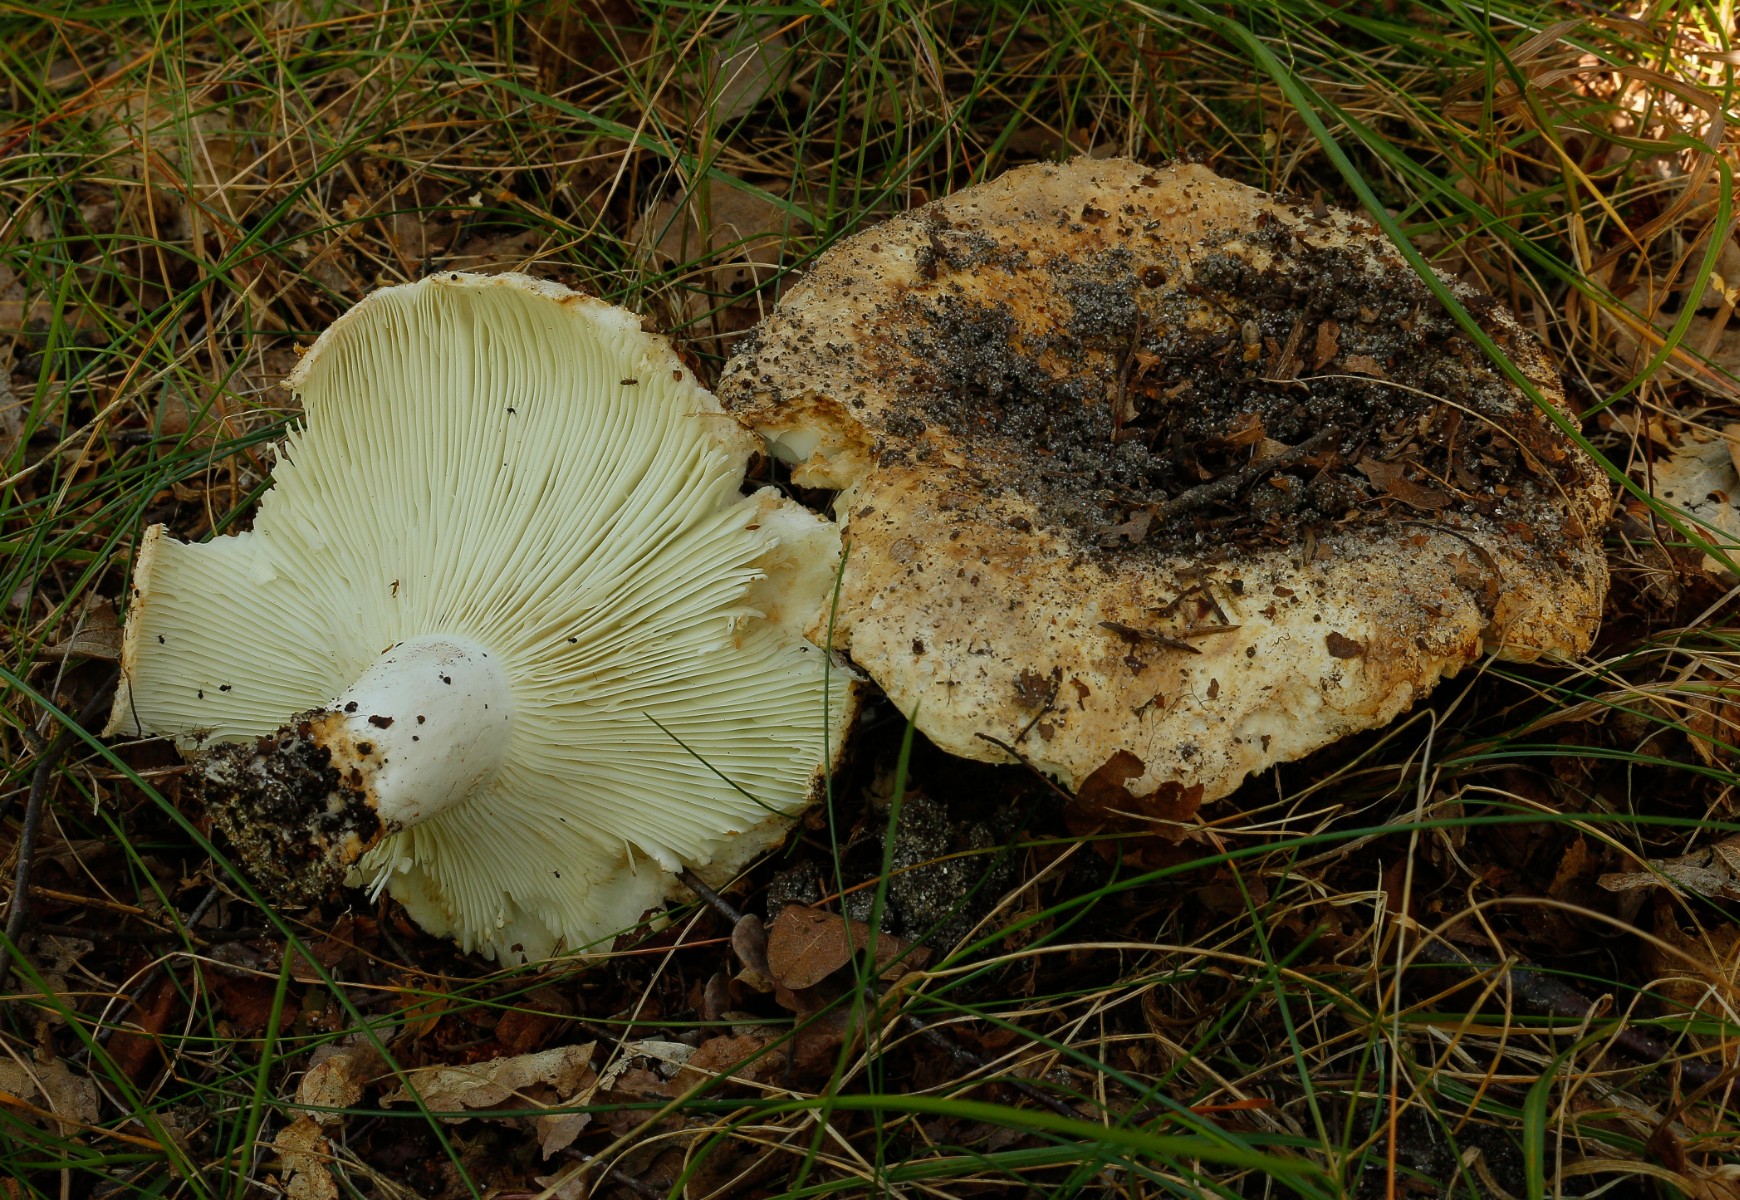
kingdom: Fungi
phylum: Basidiomycota
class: Agaricomycetes
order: Russulales
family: Russulaceae
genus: Russula
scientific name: Russula chloroides
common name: grønhalset tragt-skørhat
